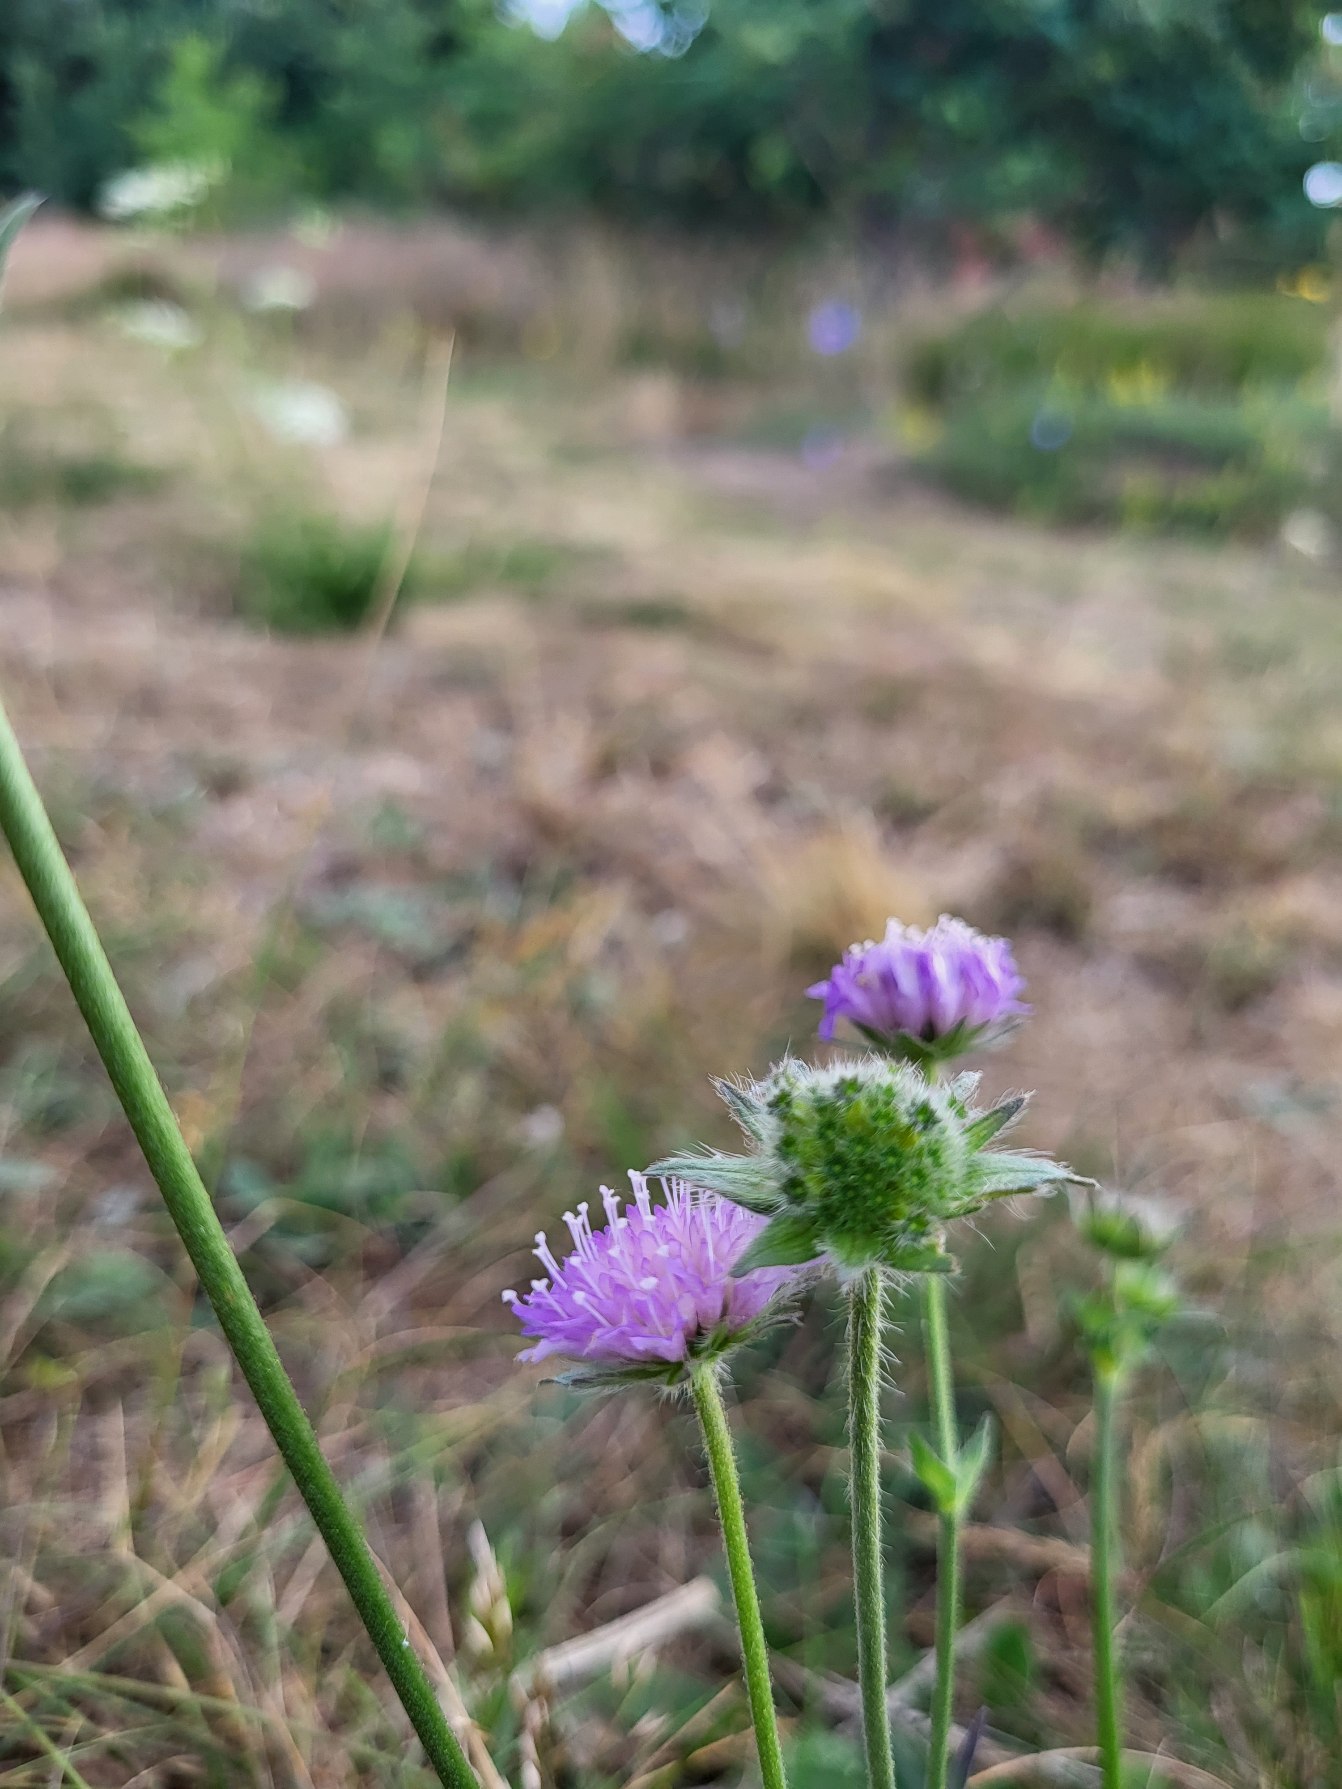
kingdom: Plantae
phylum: Tracheophyta
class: Magnoliopsida
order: Dipsacales
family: Caprifoliaceae
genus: Knautia
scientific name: Knautia arvensis
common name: Blåhat
